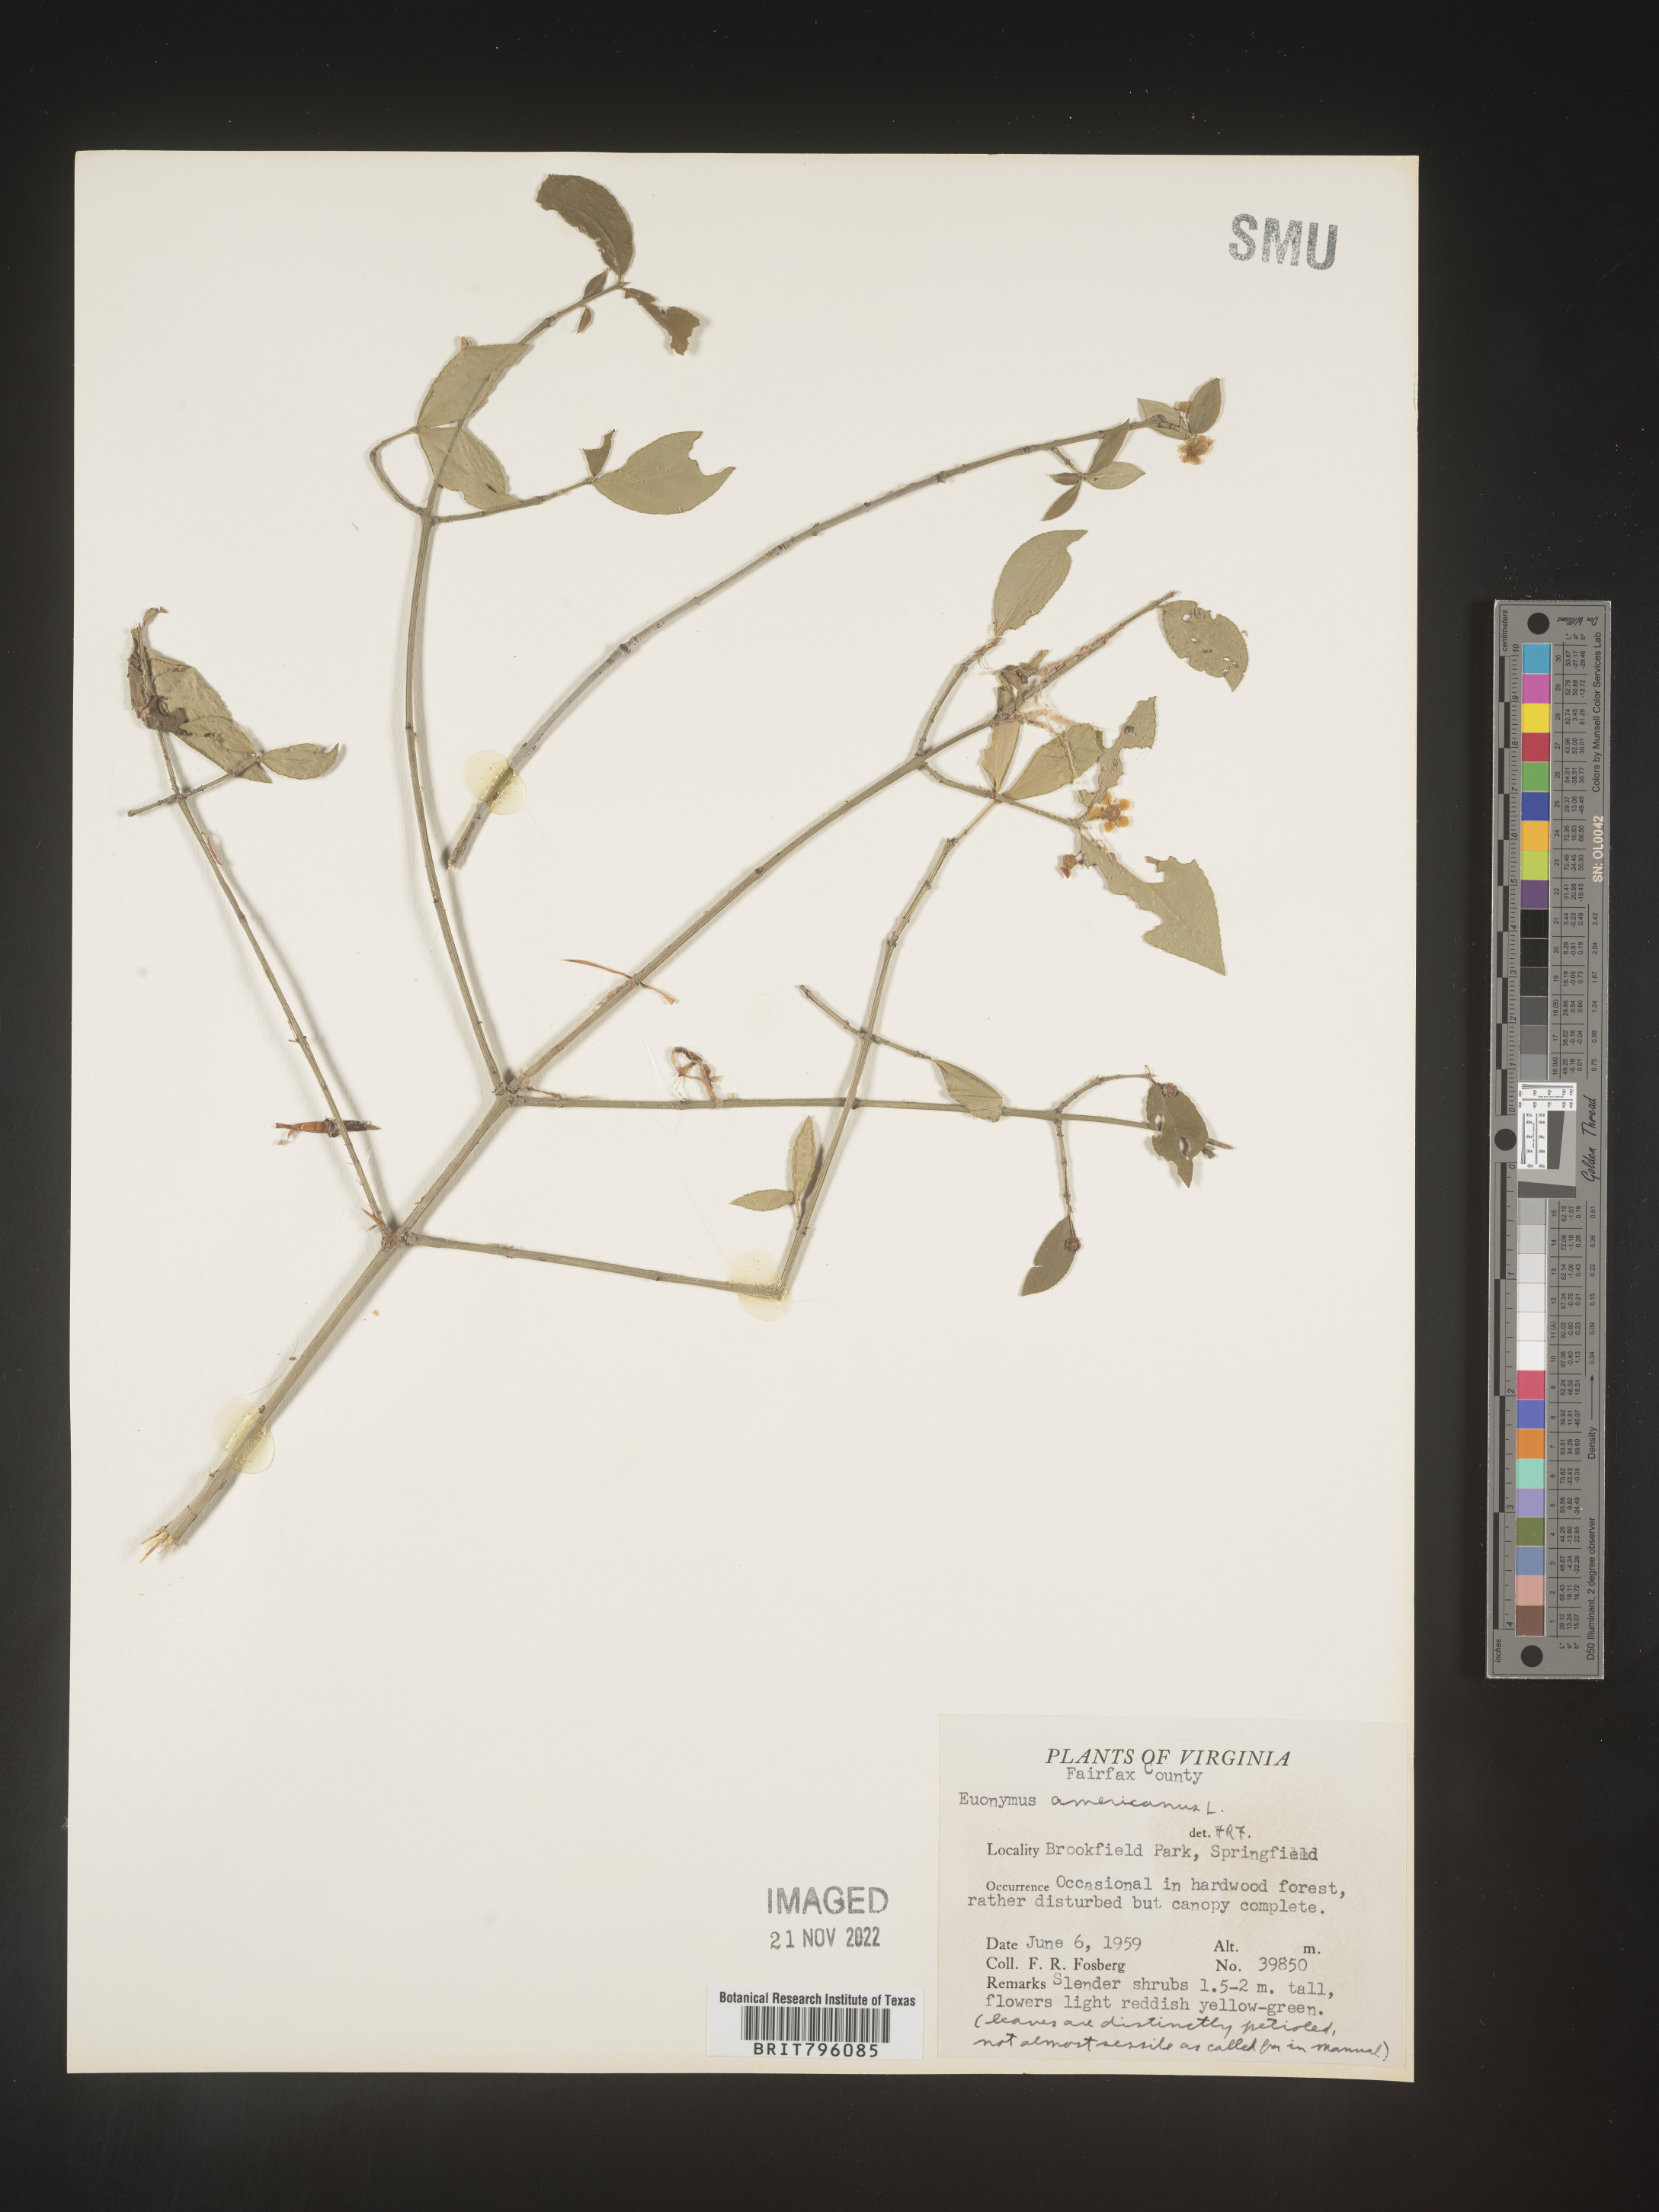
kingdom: Plantae
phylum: Tracheophyta
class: Magnoliopsida
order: Celastrales
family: Celastraceae
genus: Euonymus
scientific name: Euonymus americanus
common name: Bursting-heart
